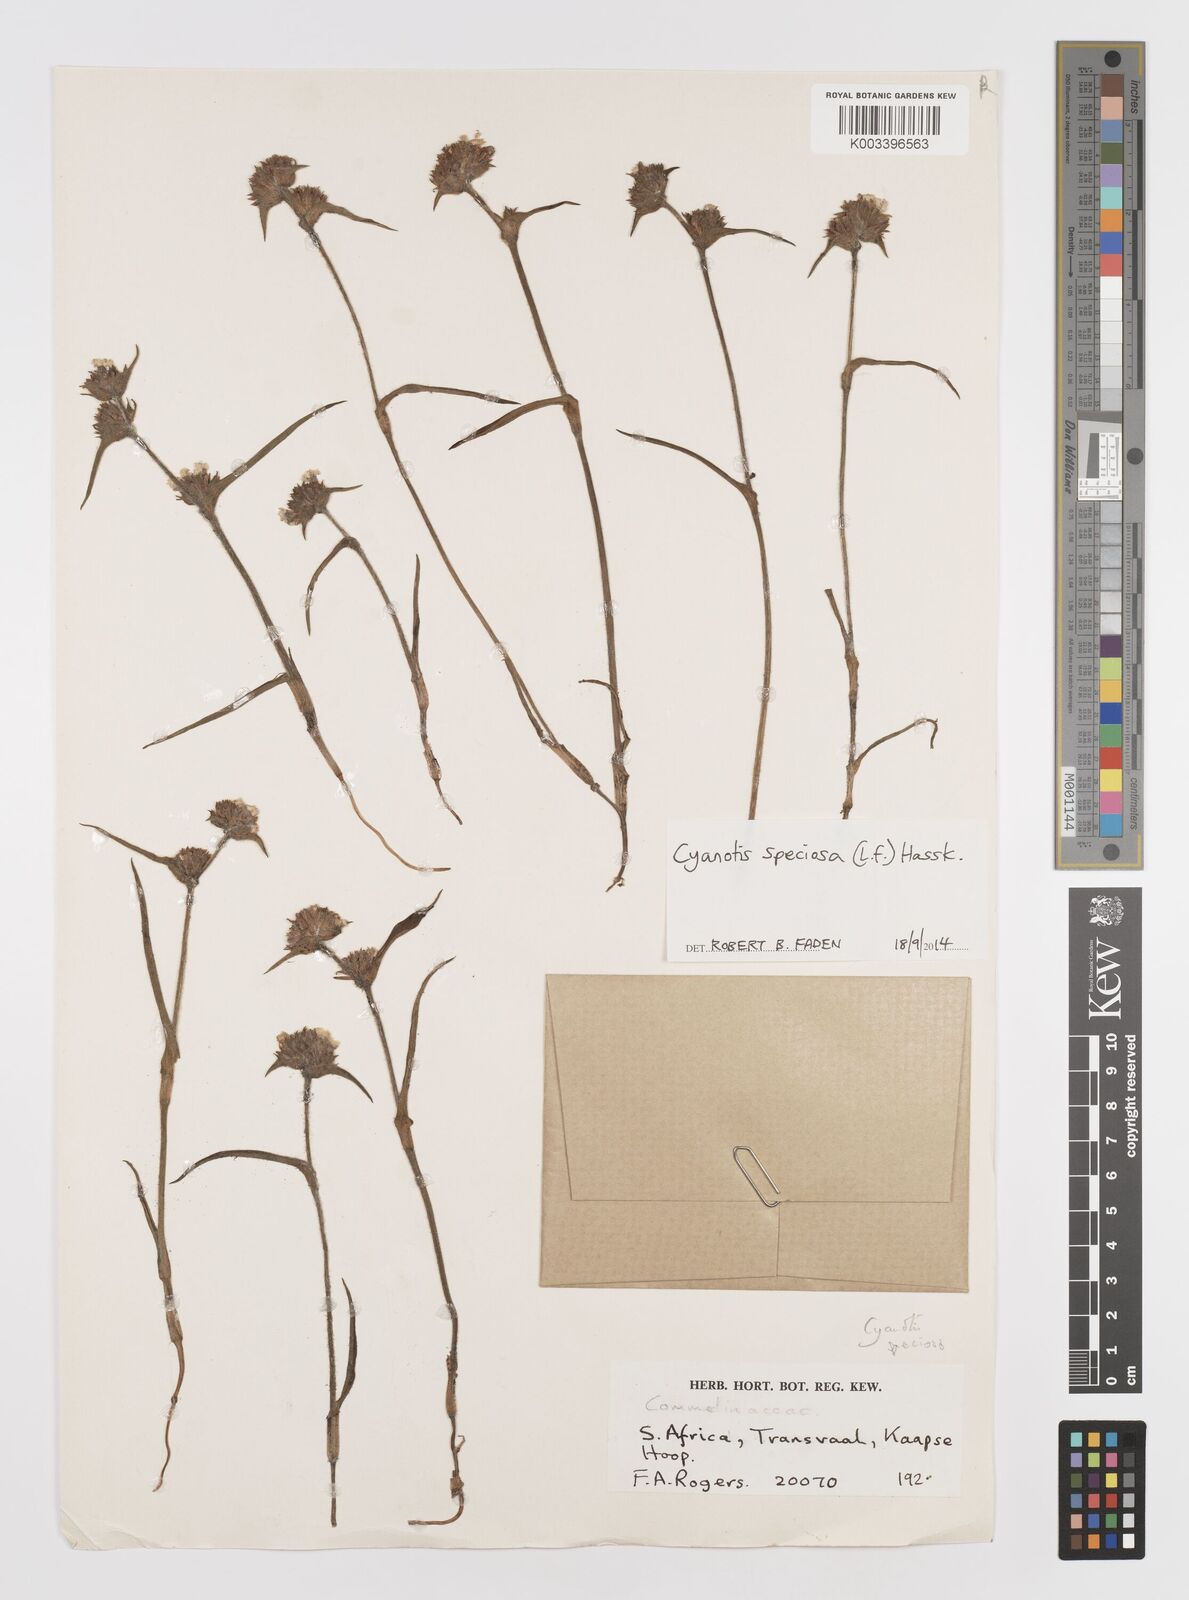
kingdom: Plantae
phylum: Tracheophyta
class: Liliopsida
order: Commelinales
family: Commelinaceae
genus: Cyanotis
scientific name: Cyanotis speciosa
